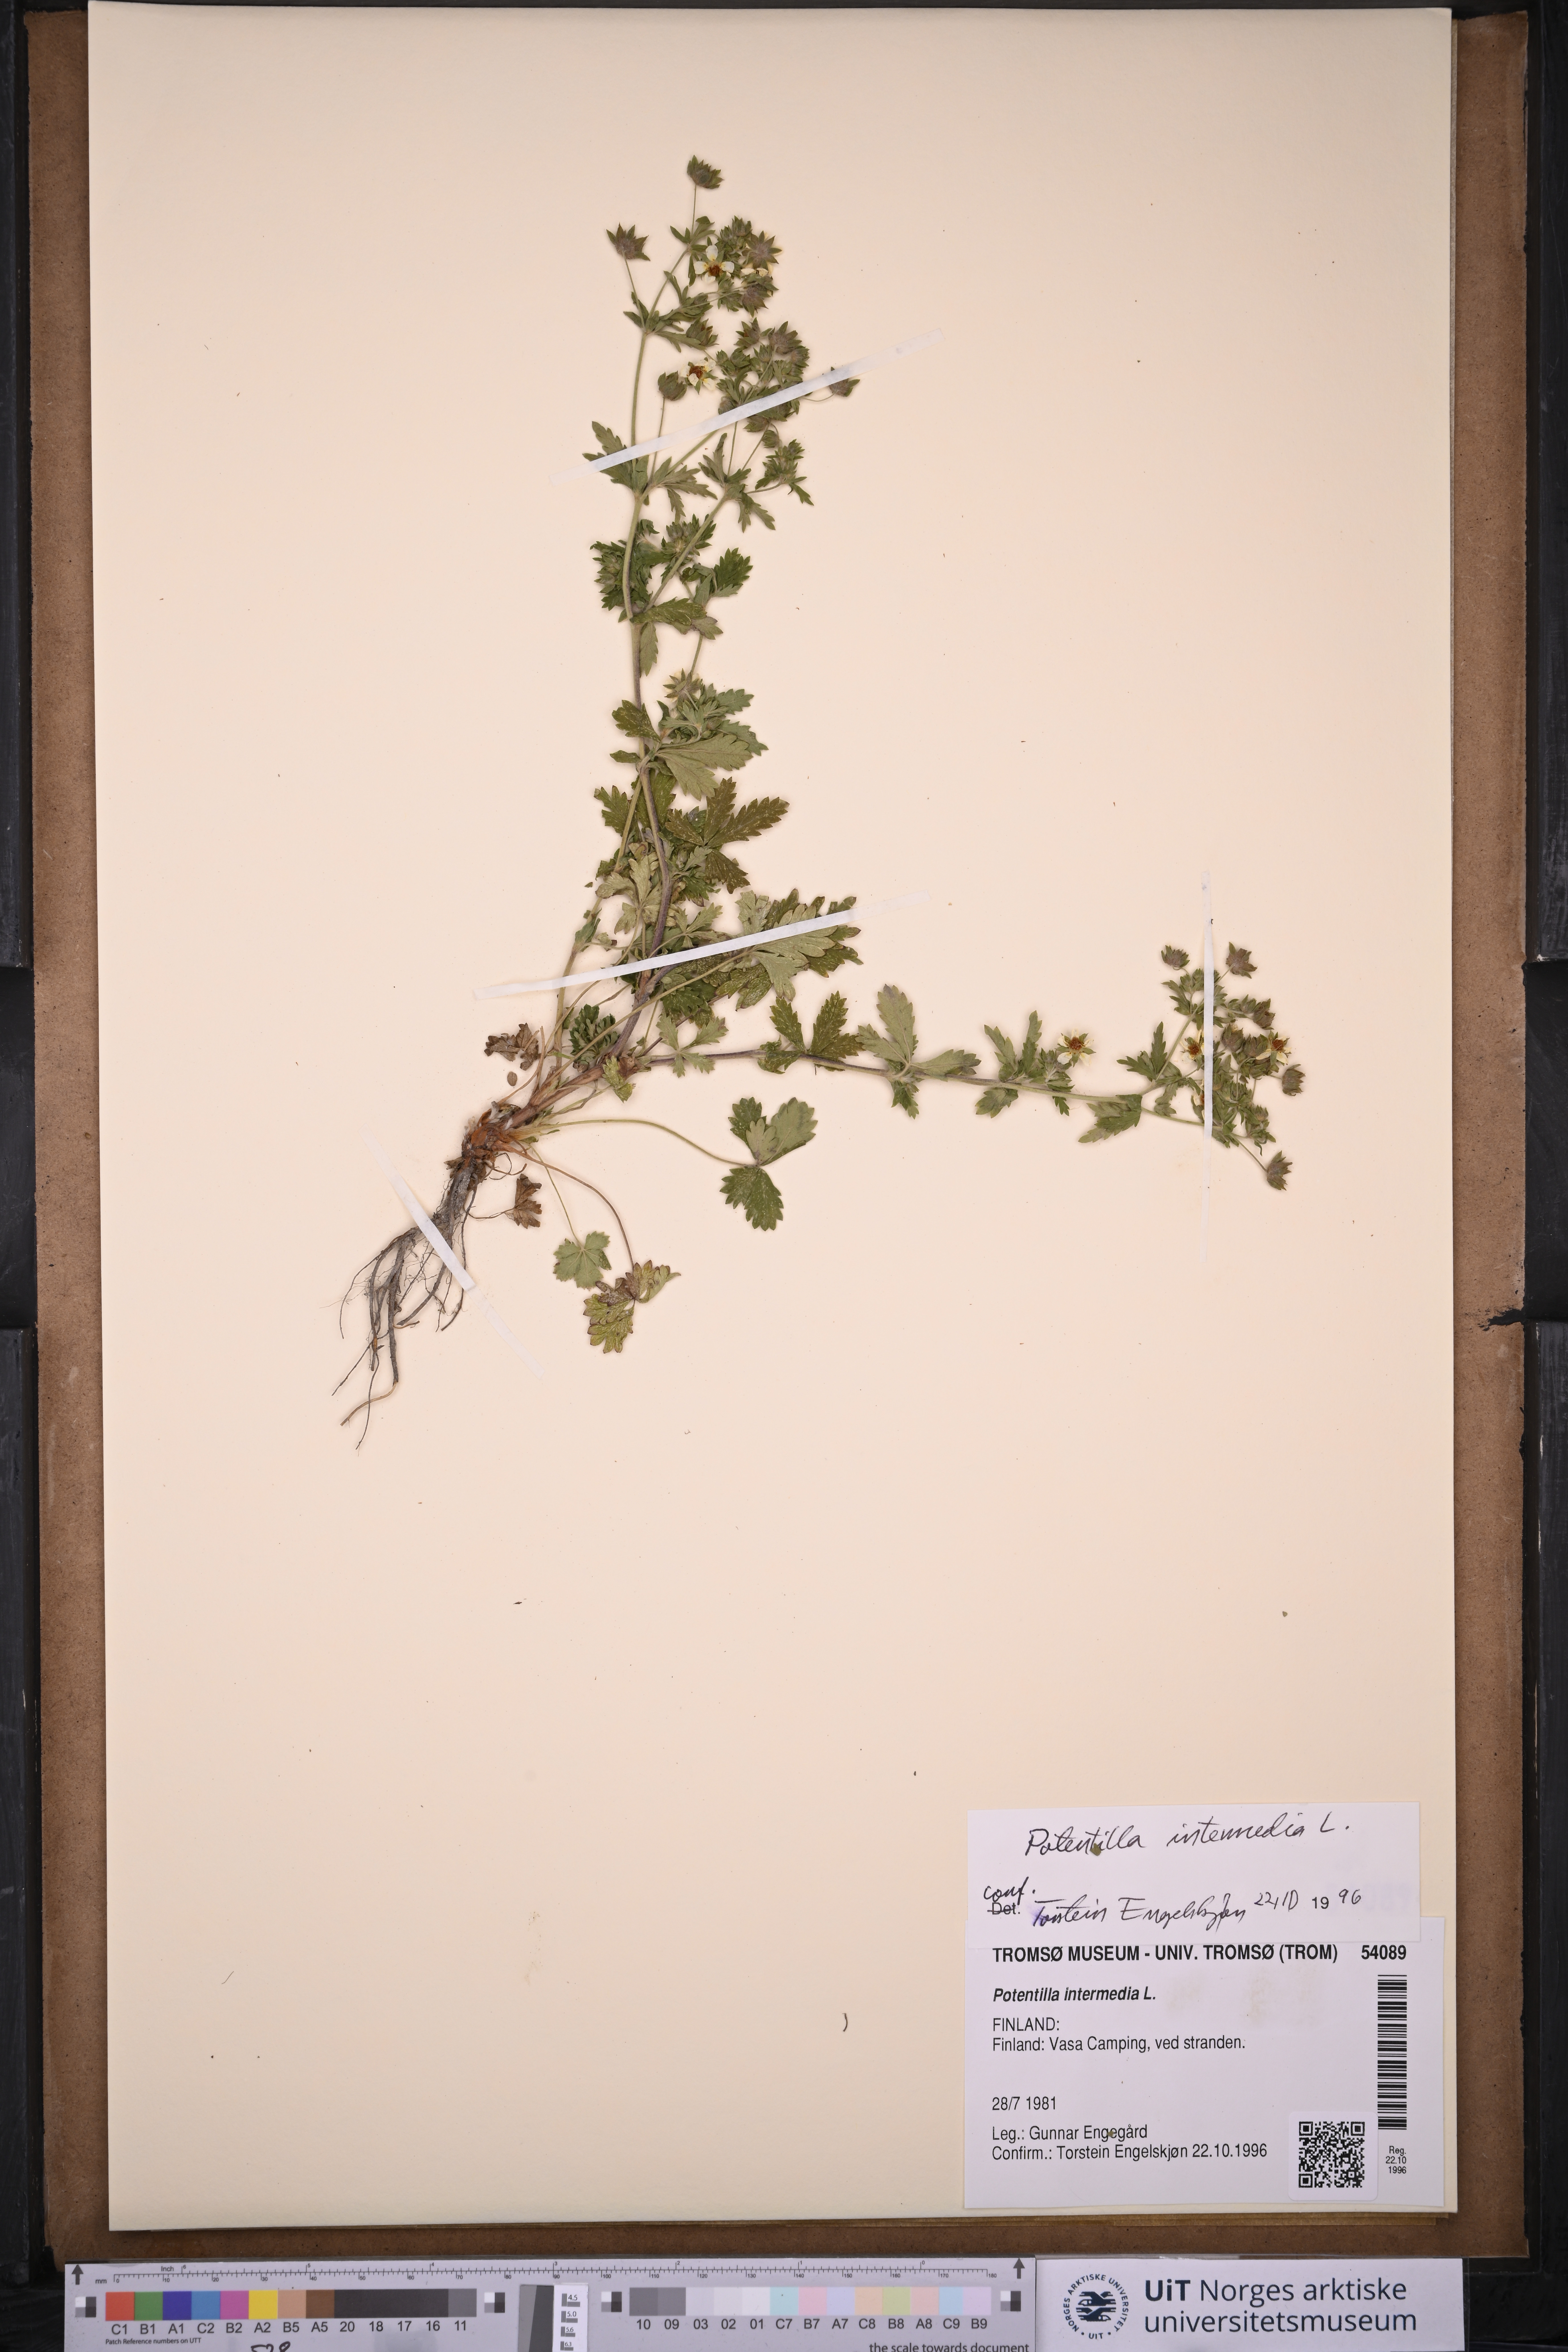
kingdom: Plantae
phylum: Tracheophyta
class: Magnoliopsida
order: Rosales
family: Rosaceae
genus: Potentilla
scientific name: Potentilla intermedia
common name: Downy cinquefoil
